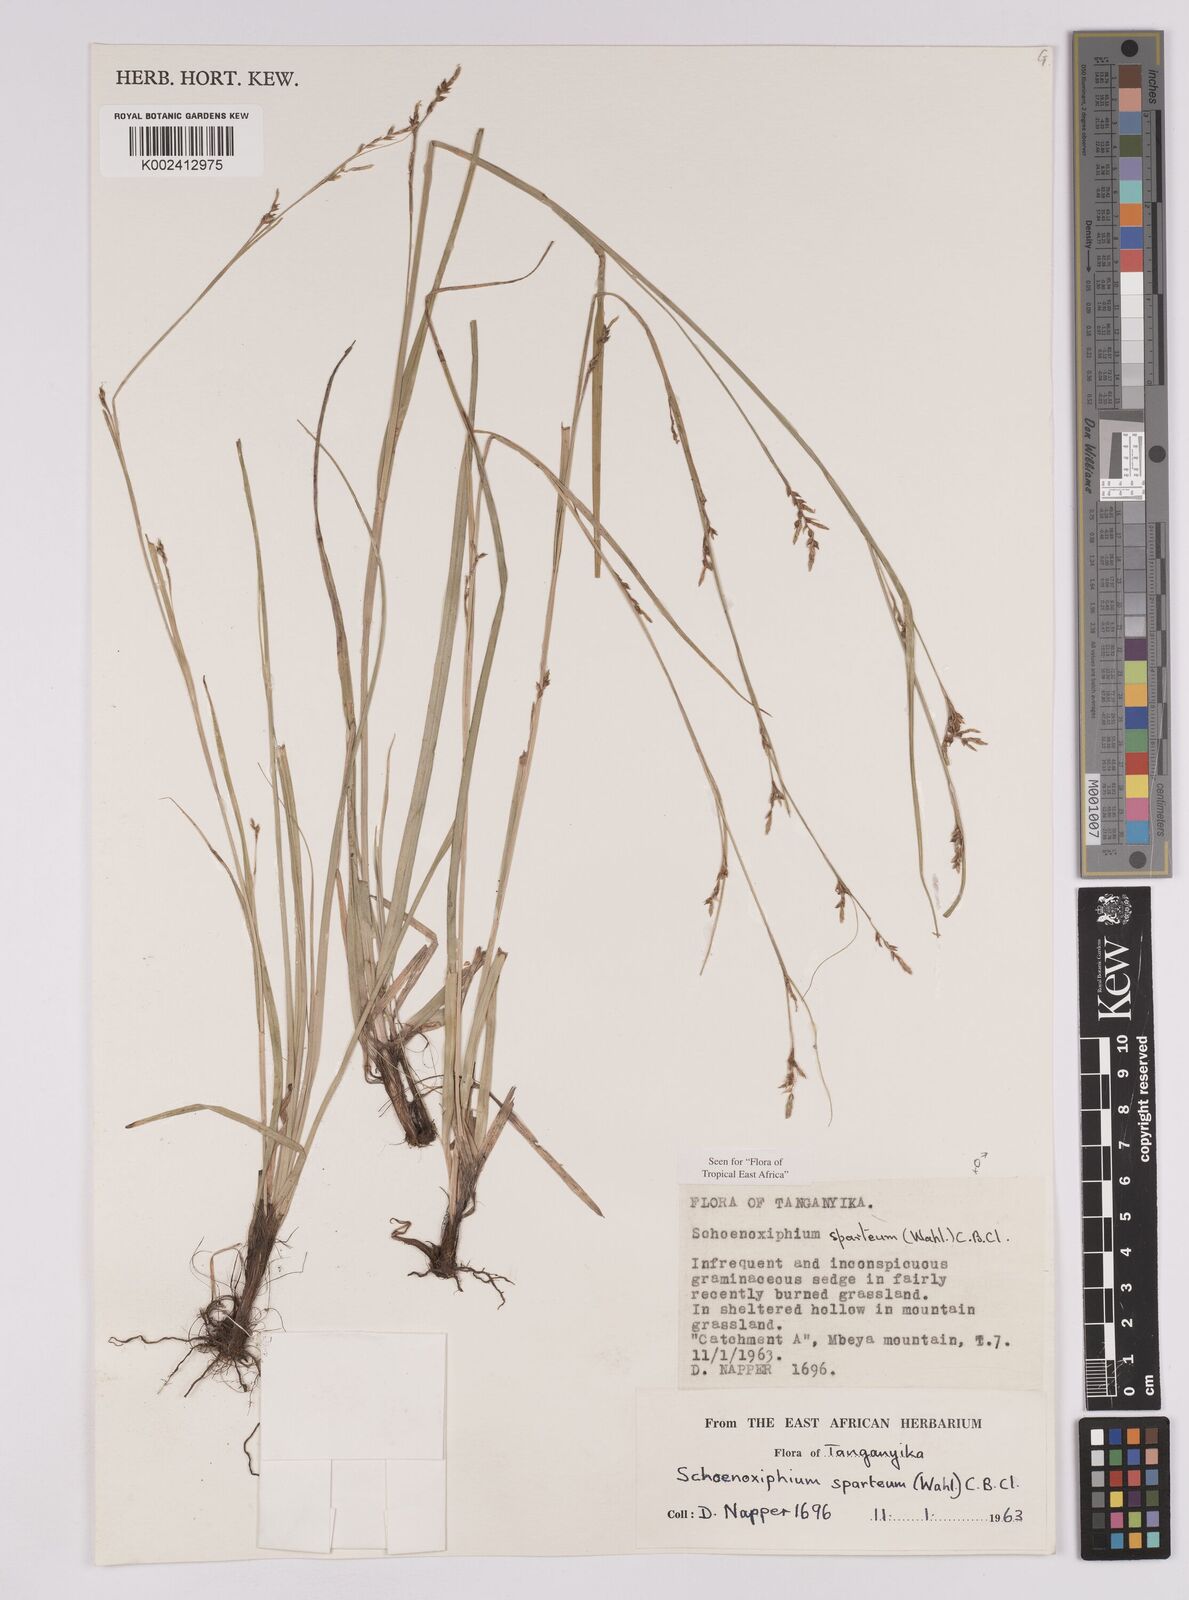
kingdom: Plantae
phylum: Tracheophyta
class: Liliopsida
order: Poales
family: Cyperaceae
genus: Carex
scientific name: Carex spartea
